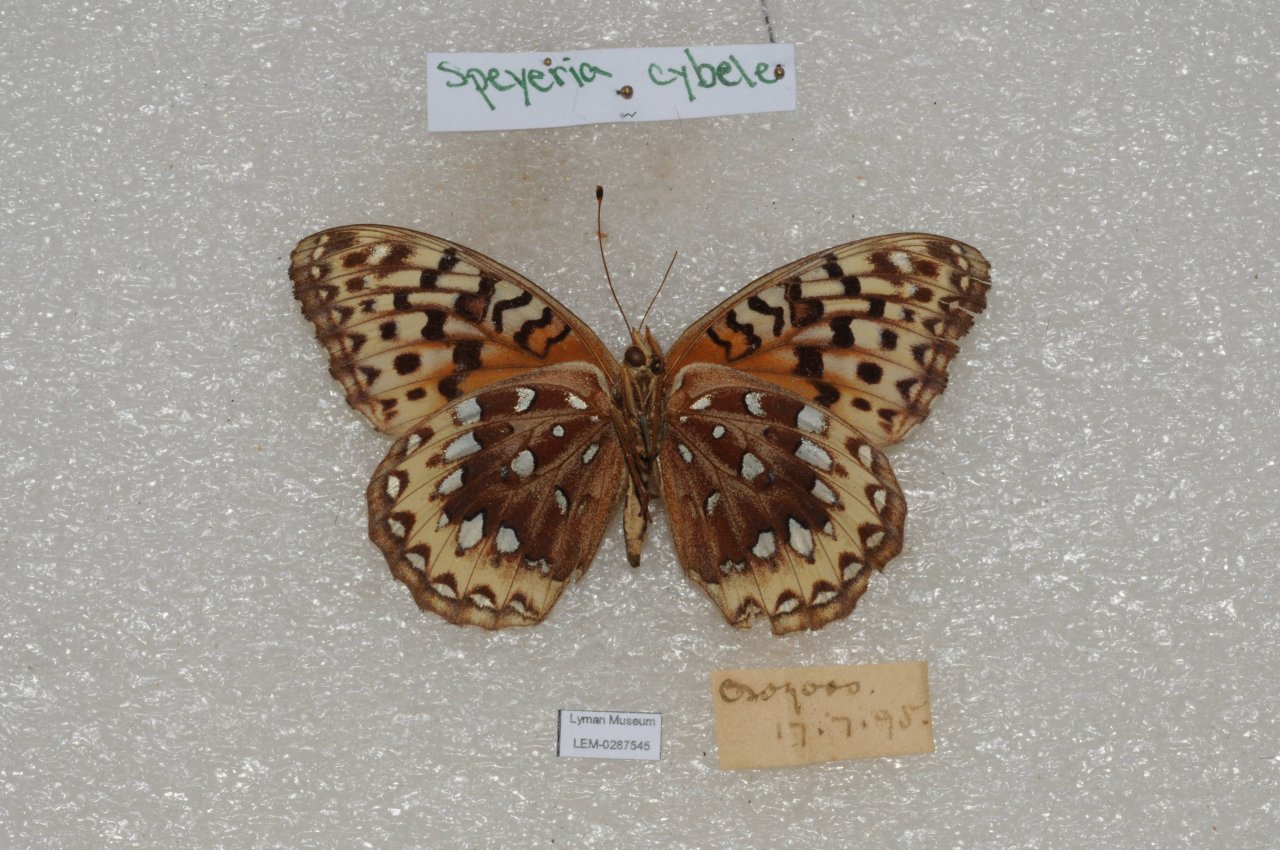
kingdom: Animalia
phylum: Arthropoda
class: Insecta
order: Lepidoptera
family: Nymphalidae
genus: Speyeria
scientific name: Speyeria cybele
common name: Great Spangled Fritillary
